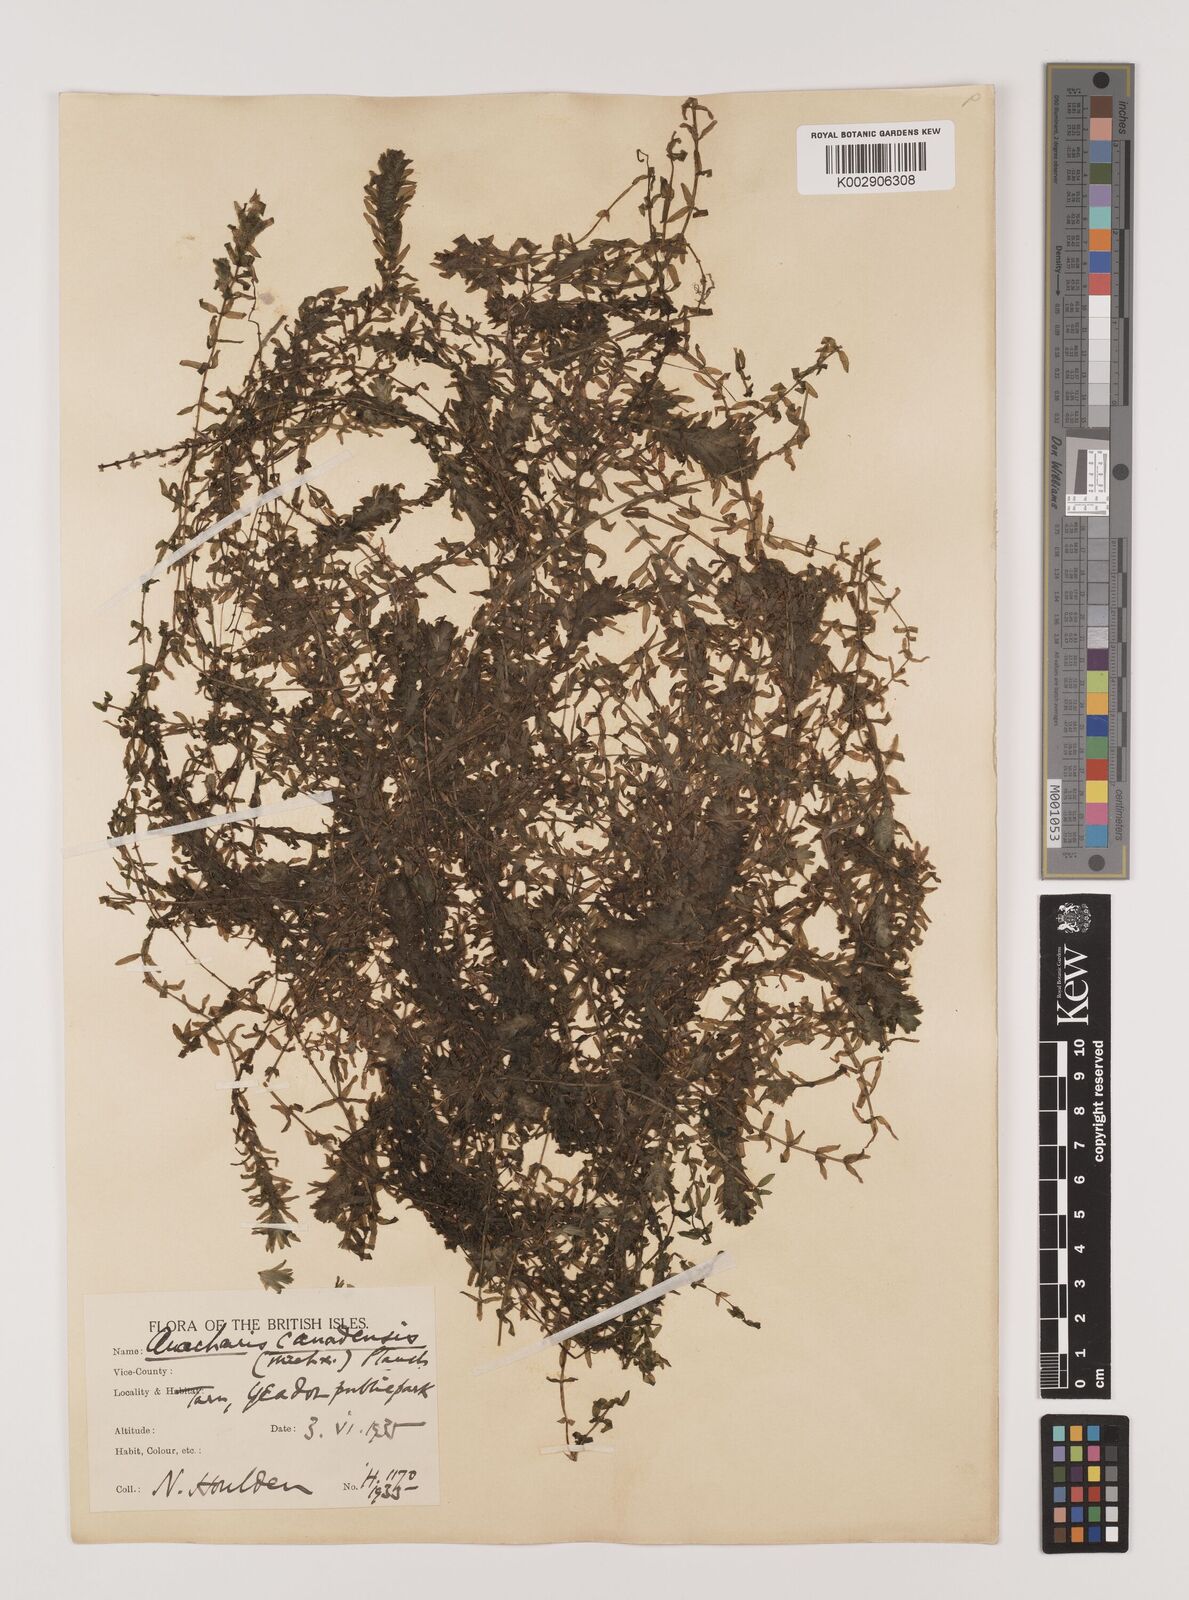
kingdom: Plantae
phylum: Tracheophyta
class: Liliopsida
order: Alismatales
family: Hydrocharitaceae
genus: Elodea
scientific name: Elodea canadensis
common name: Canadian waterweed
